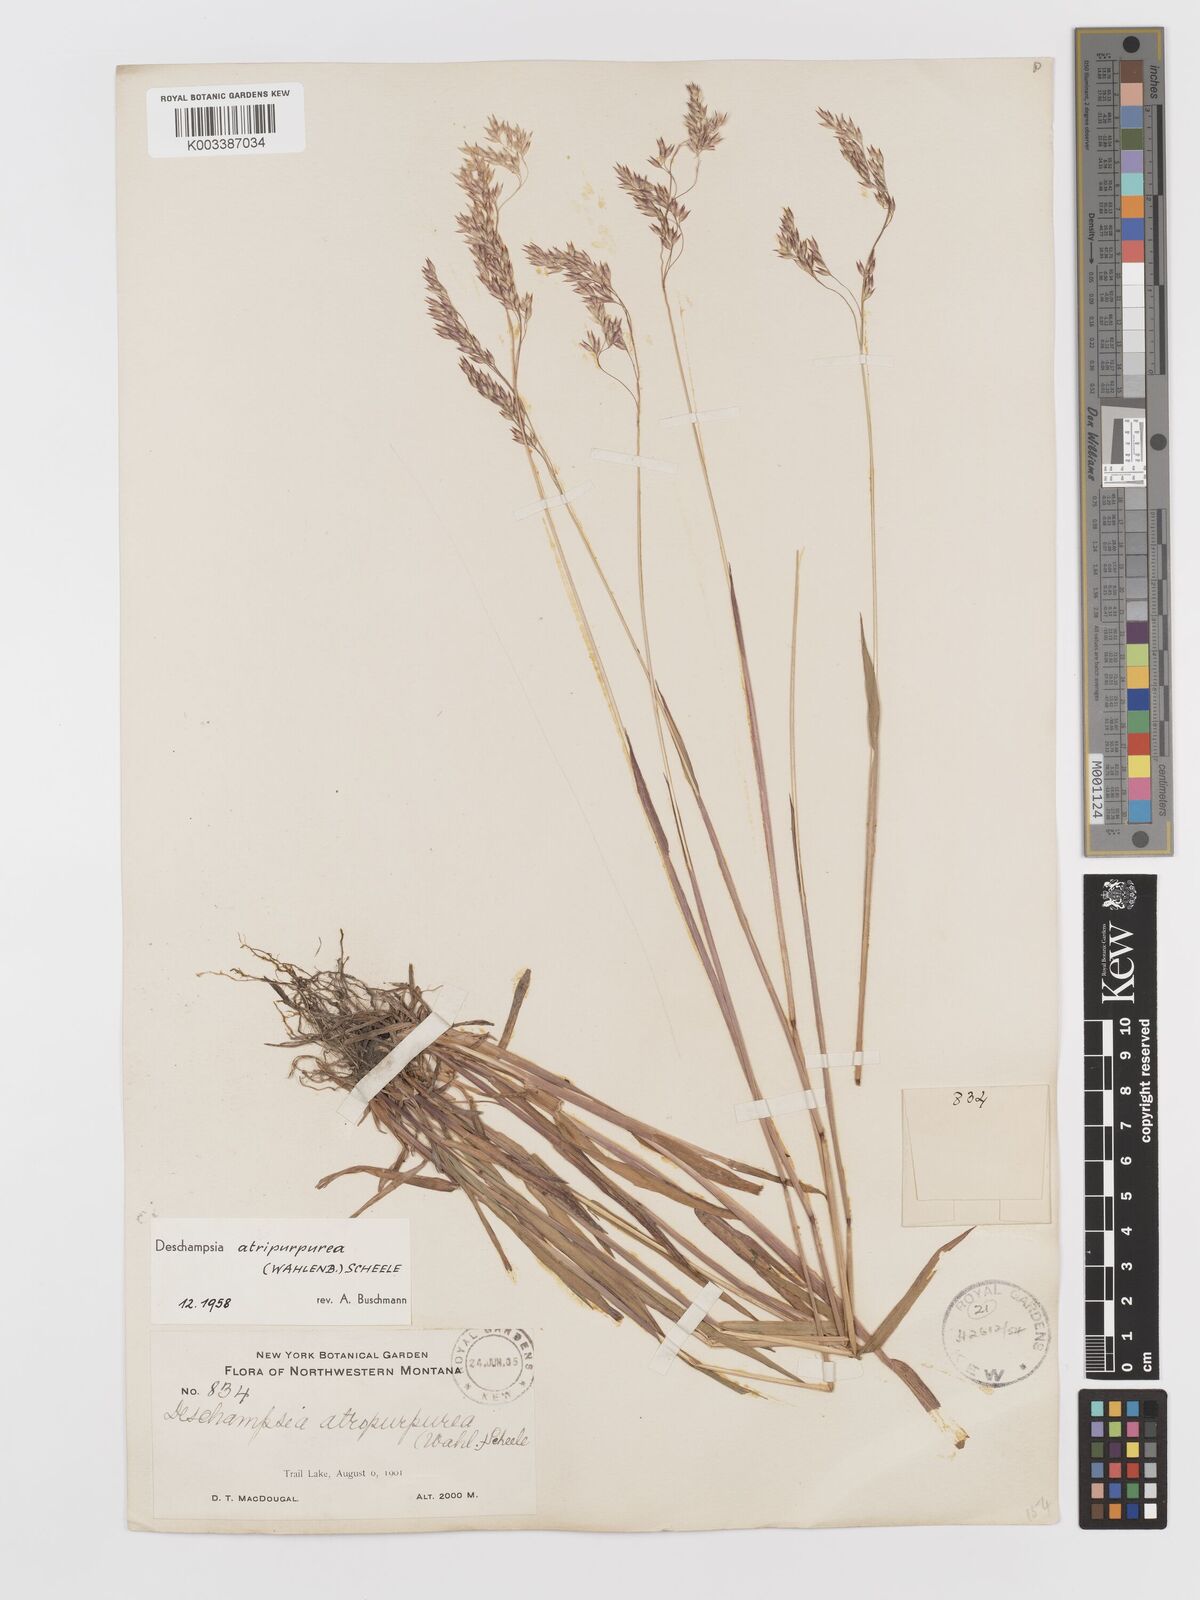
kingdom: Plantae
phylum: Tracheophyta
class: Liliopsida
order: Poales
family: Poaceae
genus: Vahlodea
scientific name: Vahlodea atropurpurea
